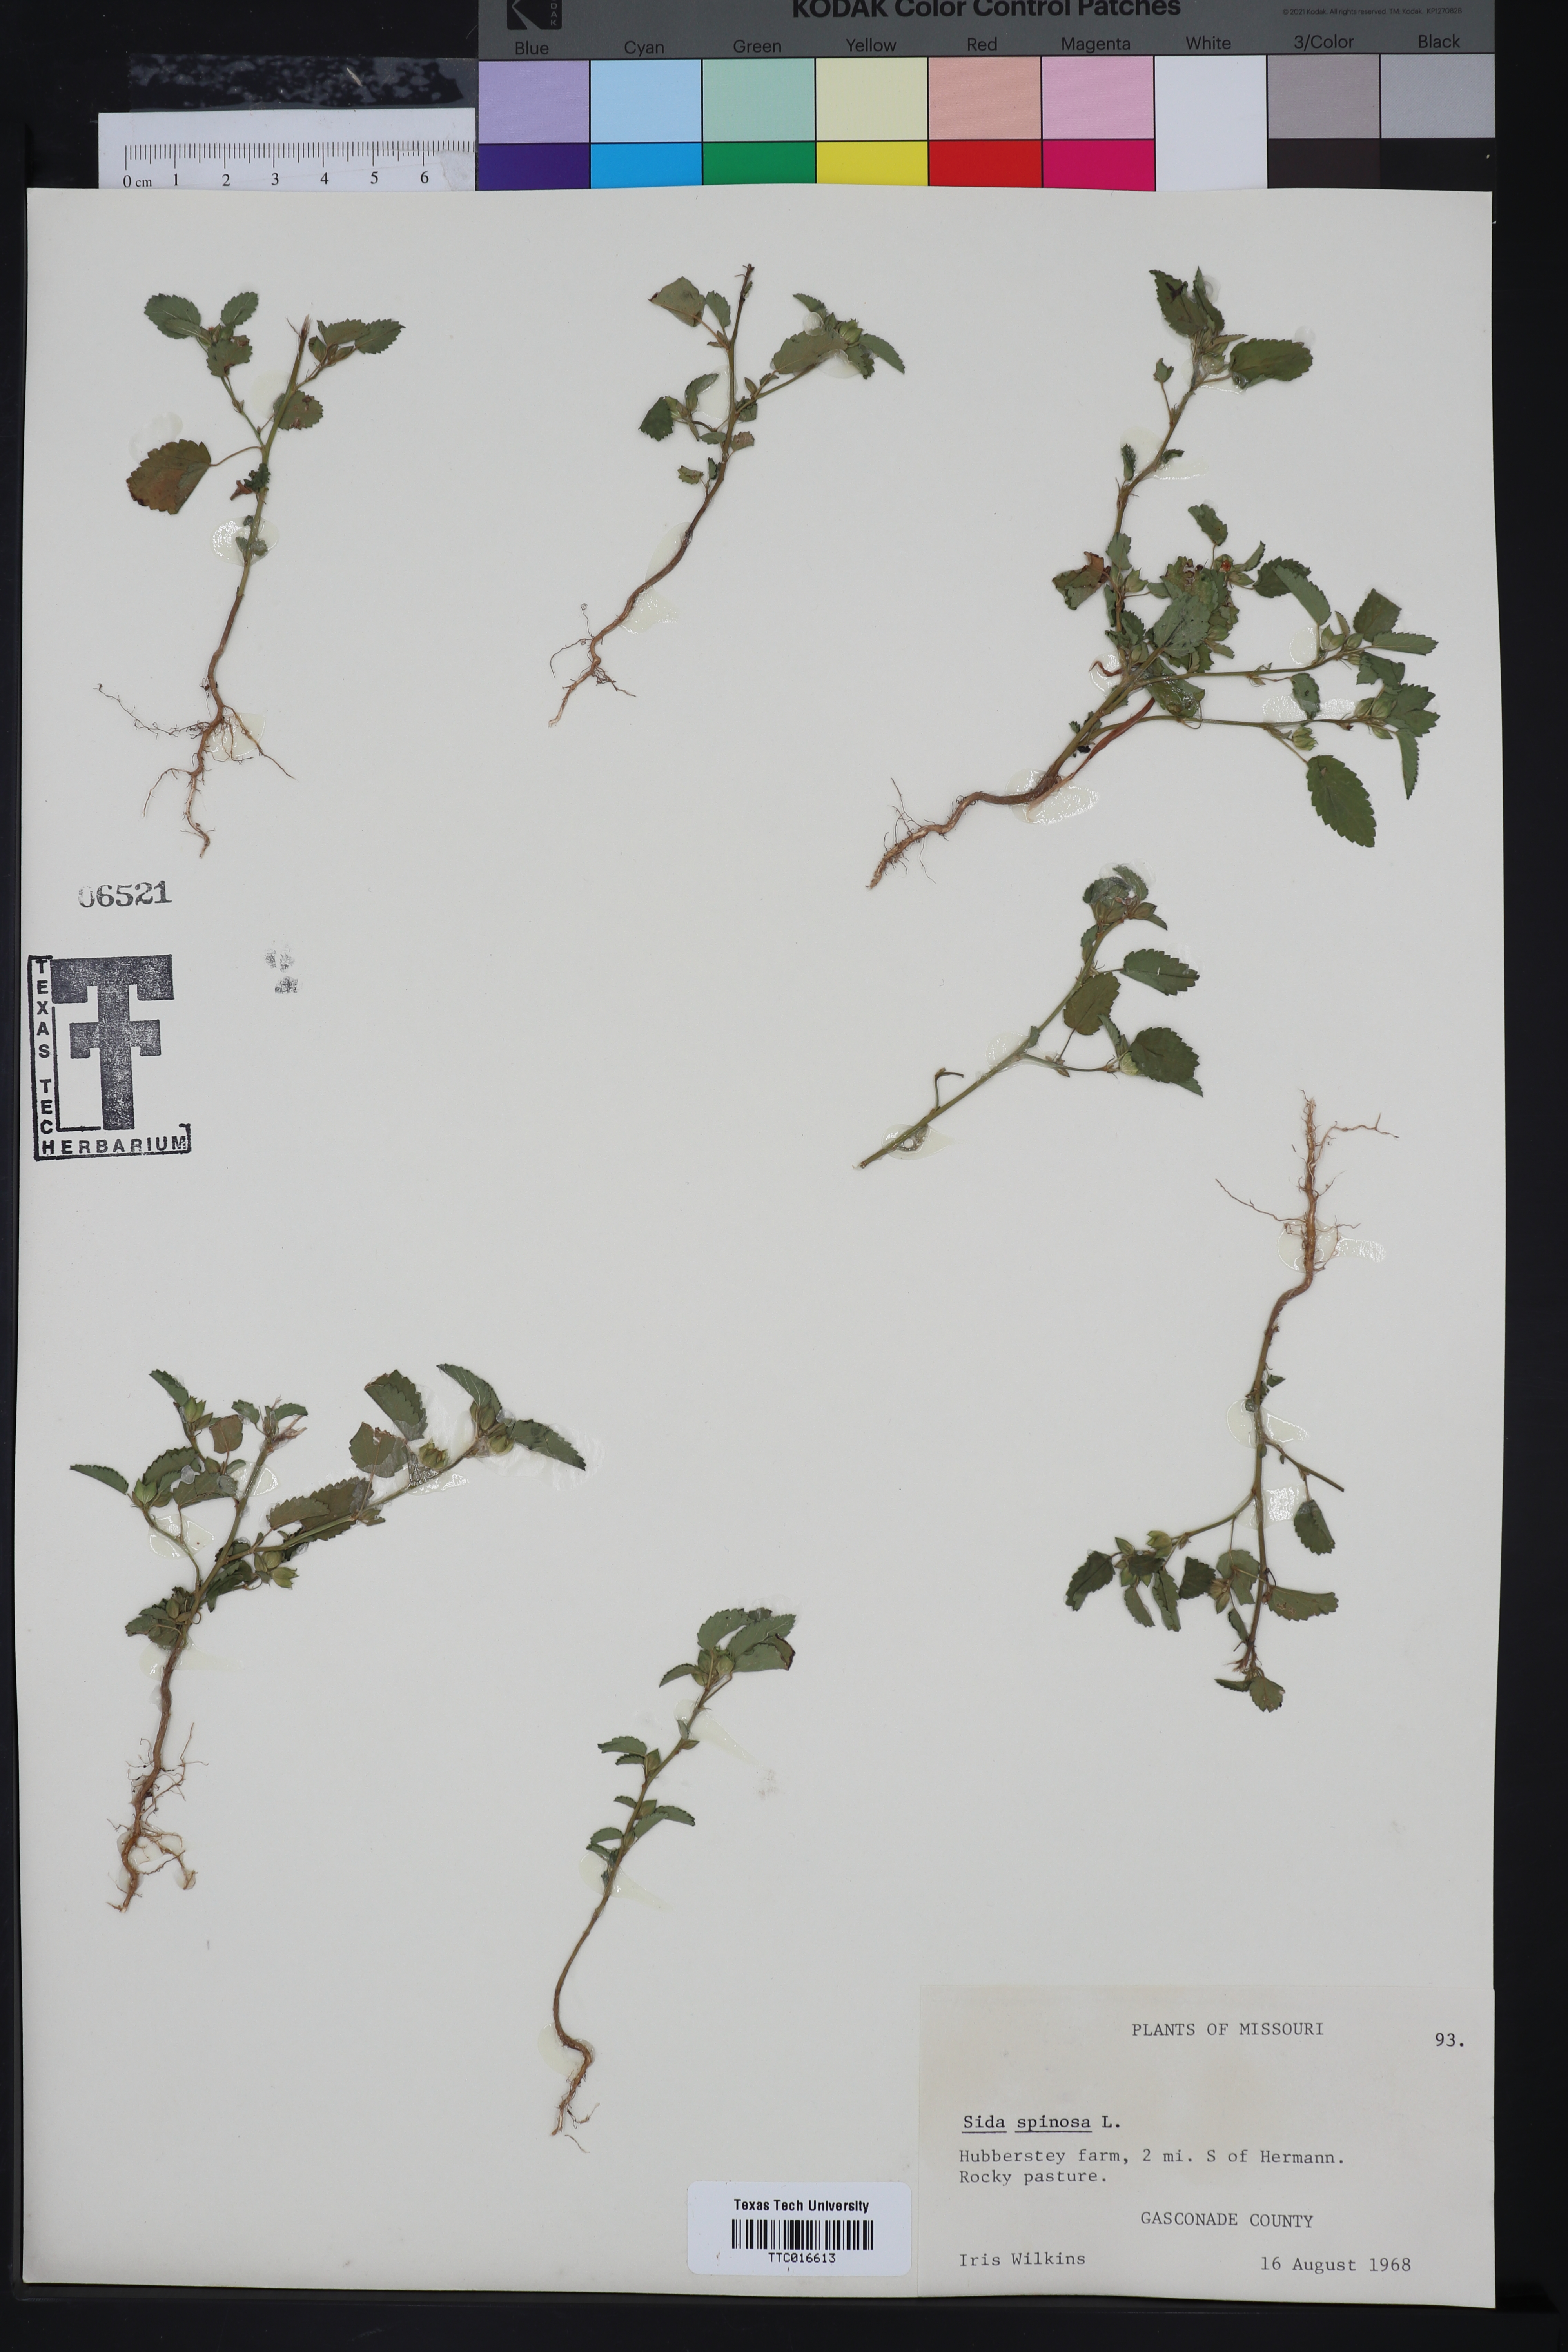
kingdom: Plantae
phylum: Tracheophyta
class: Magnoliopsida
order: Malvales
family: Malvaceae
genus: Sida
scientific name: Sida spinosa
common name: Prickly fanpetals
